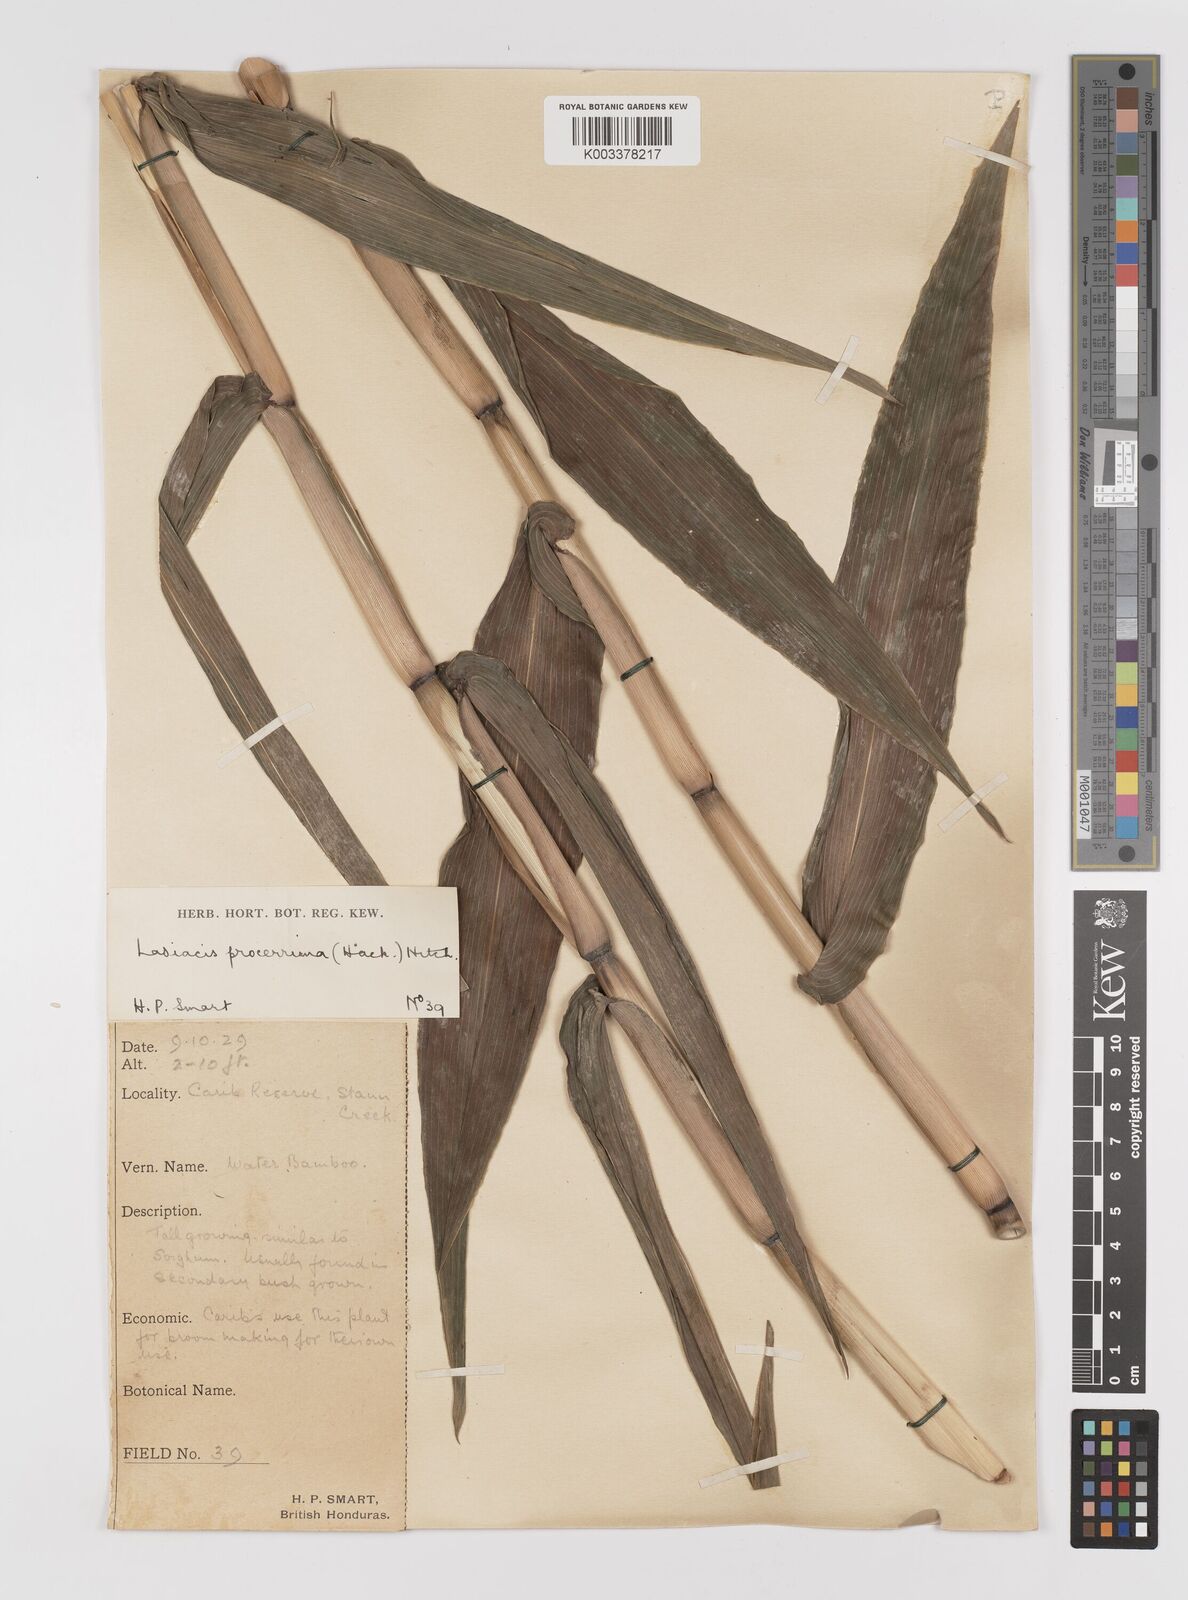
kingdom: Plantae
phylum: Tracheophyta
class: Liliopsida
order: Poales
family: Poaceae
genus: Lasiacis
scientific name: Lasiacis procerrima
